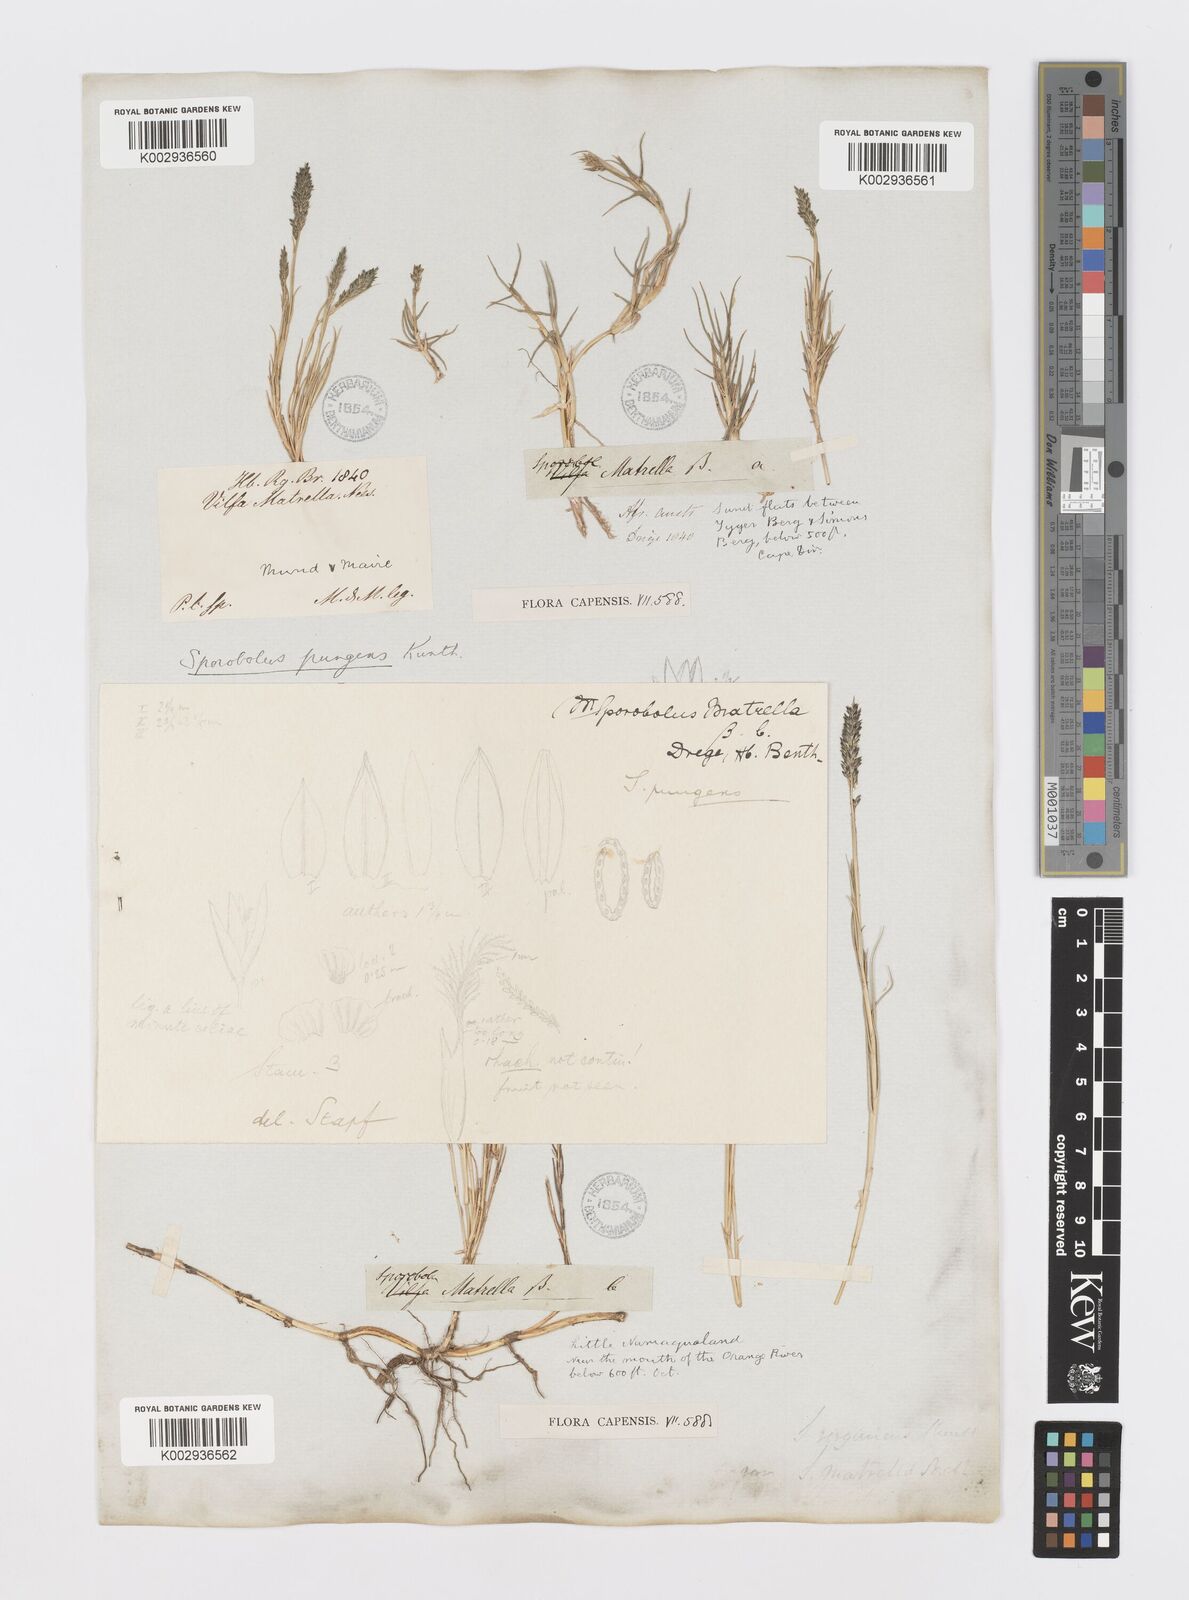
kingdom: Plantae
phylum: Tracheophyta
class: Liliopsida
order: Poales
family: Poaceae
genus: Sporobolus
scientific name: Sporobolus virginicus
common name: Beach dropseed
